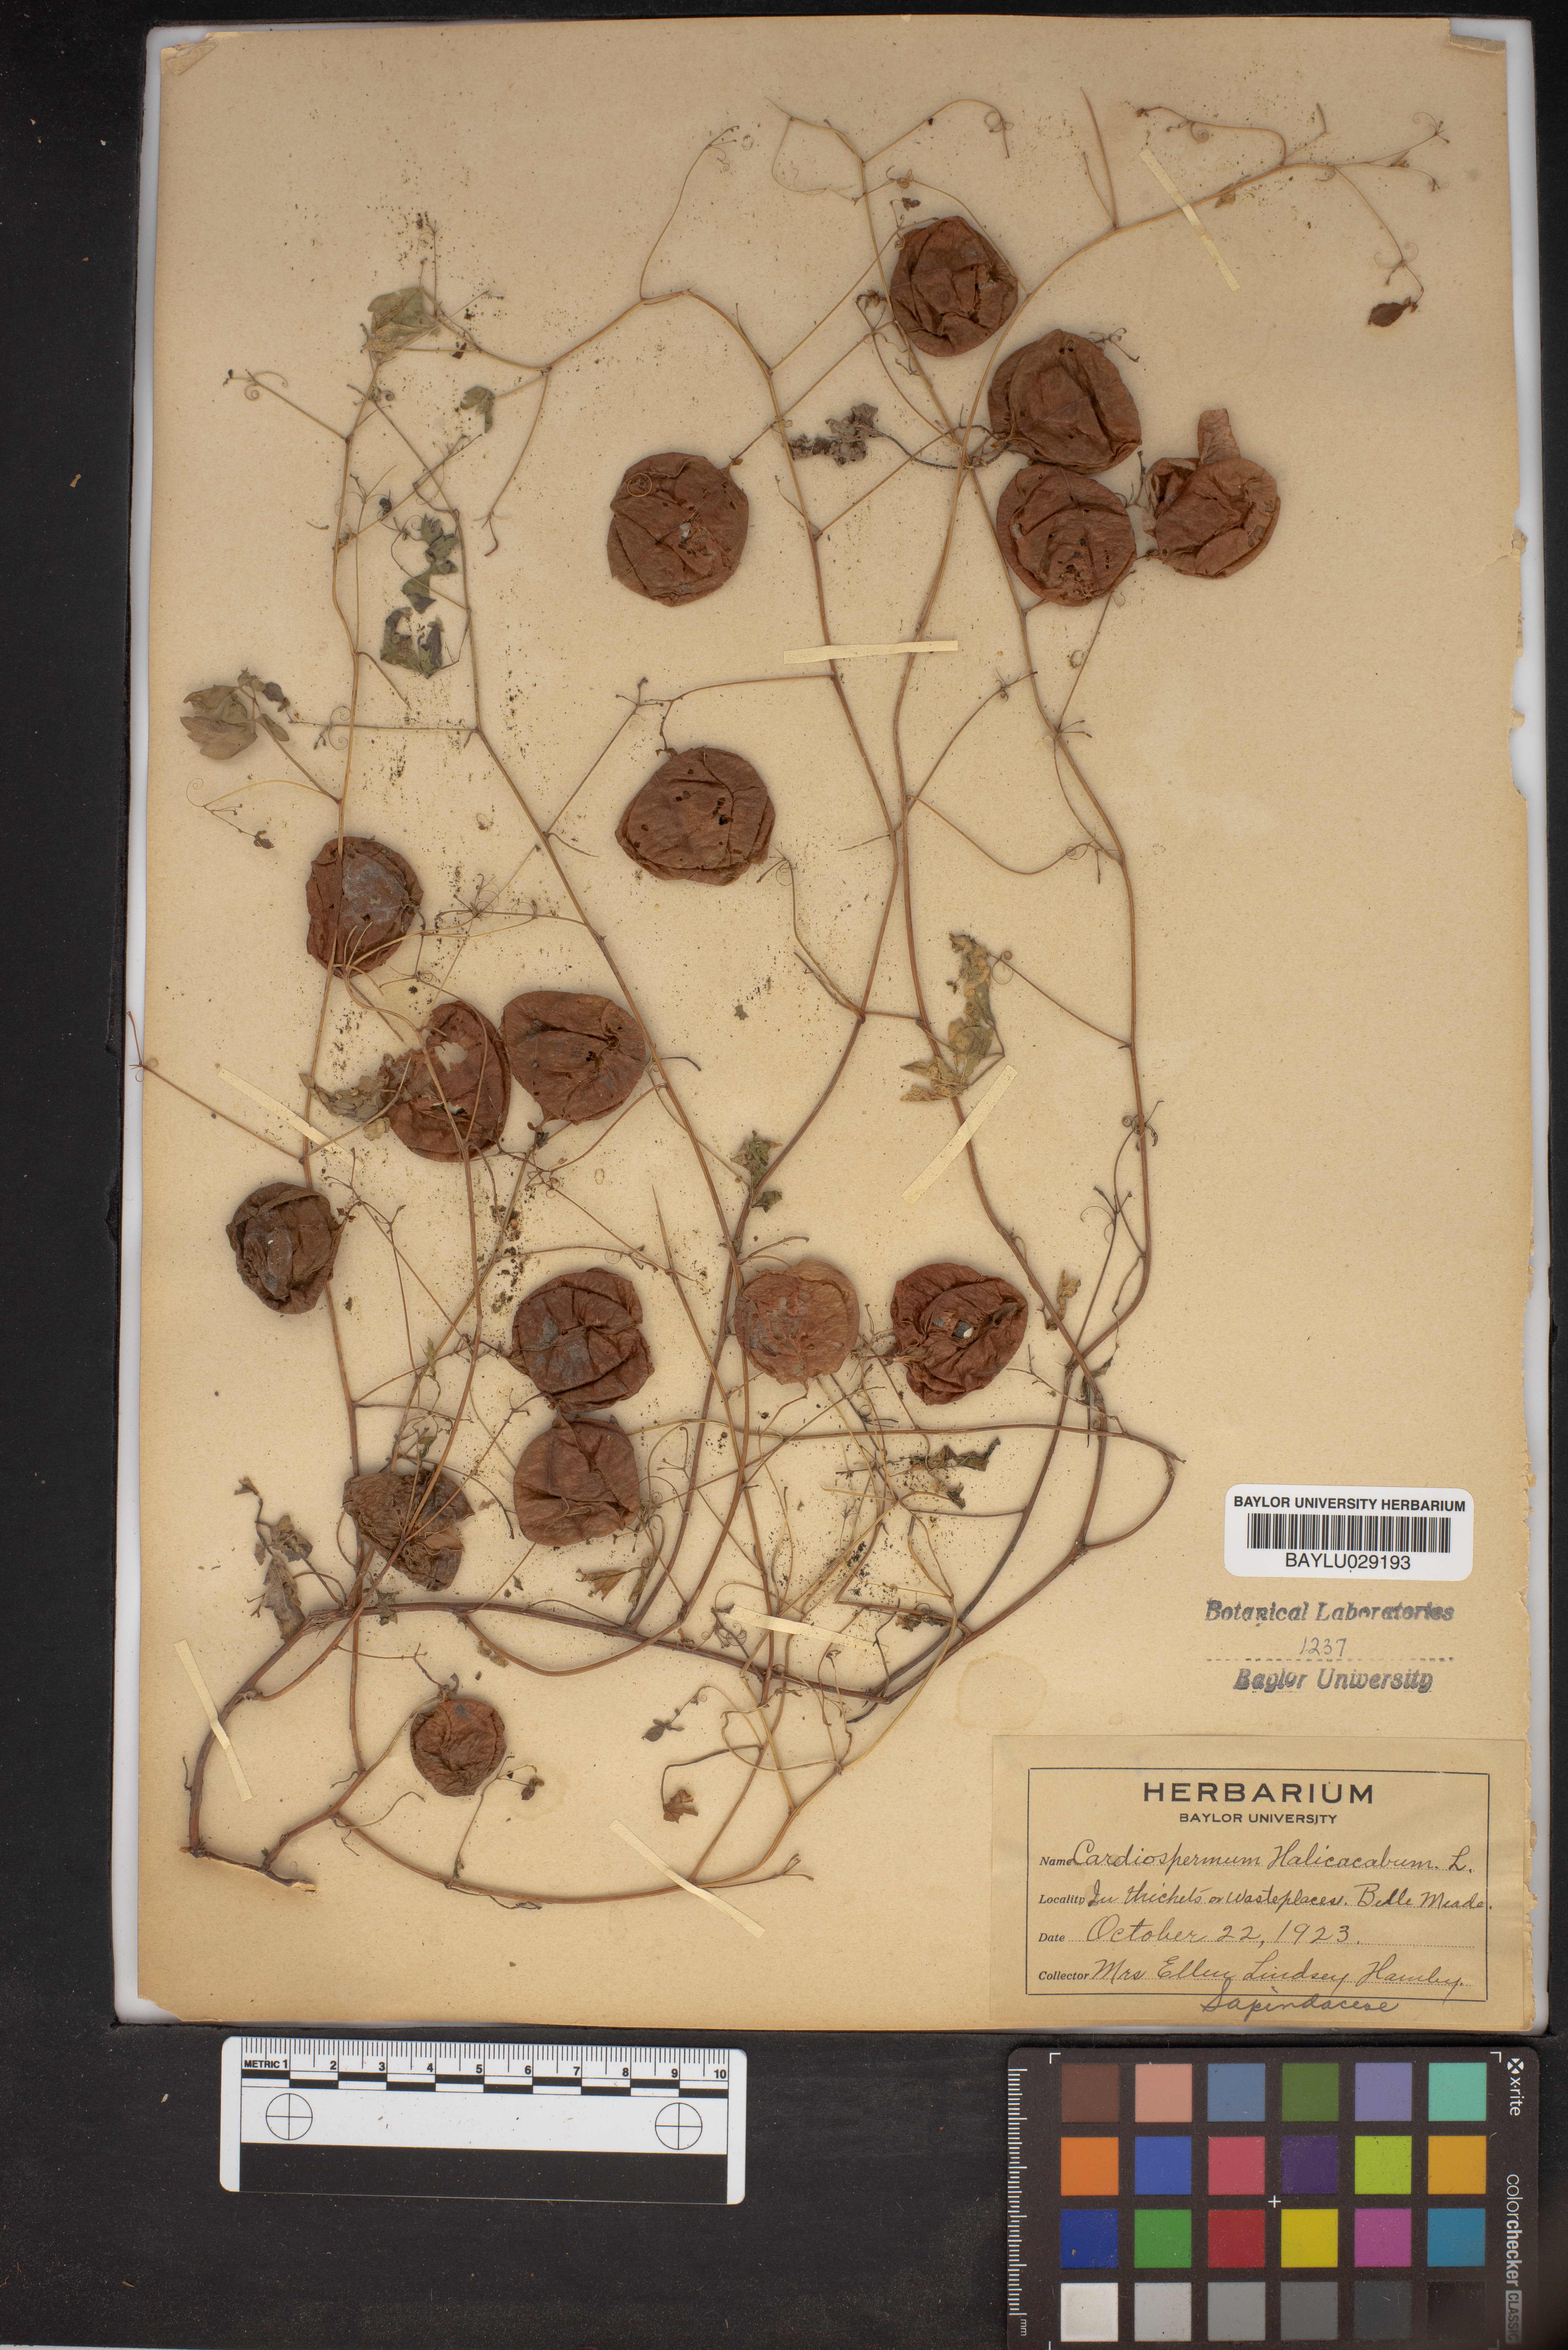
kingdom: Plantae
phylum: Tracheophyta
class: Magnoliopsida
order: Sapindales
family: Sapindaceae
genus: Cardiospermum
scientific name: Cardiospermum halicacabum
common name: Balloon vine
